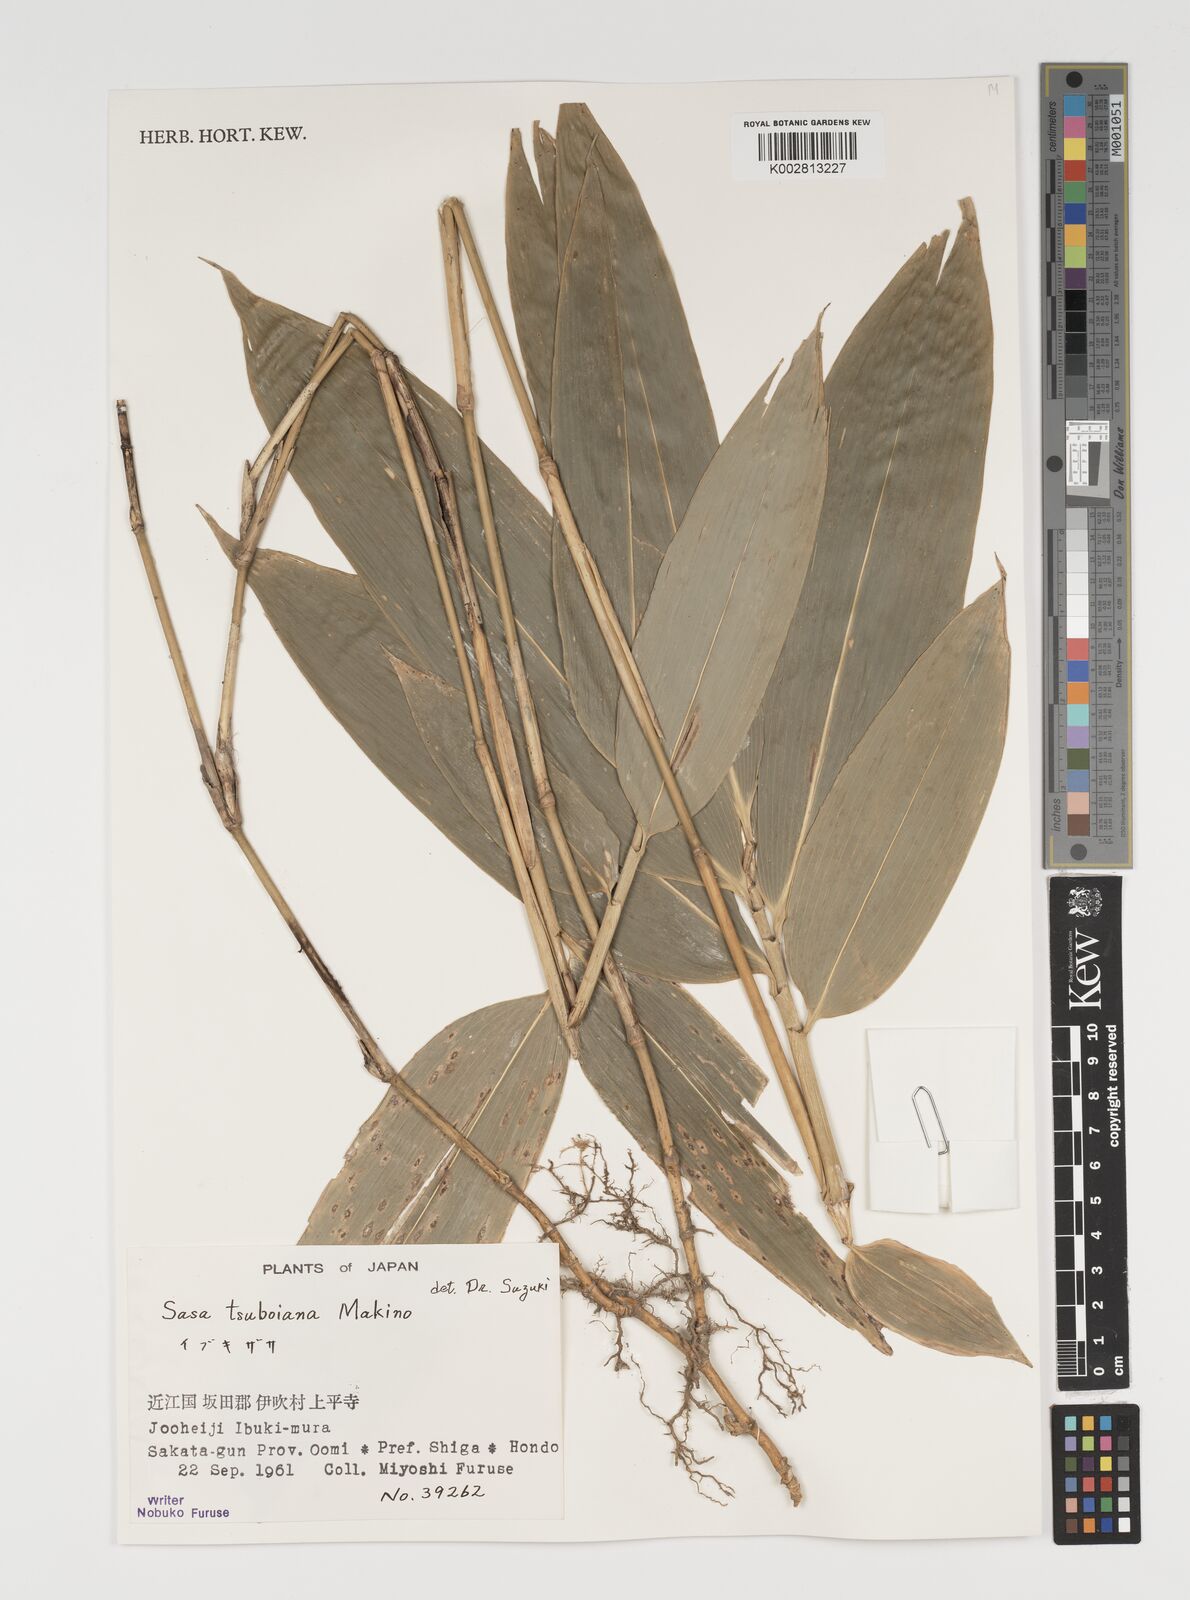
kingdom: Plantae
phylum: Tracheophyta
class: Liliopsida
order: Poales
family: Poaceae
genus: Sasa
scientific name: Sasa tsuboiana
